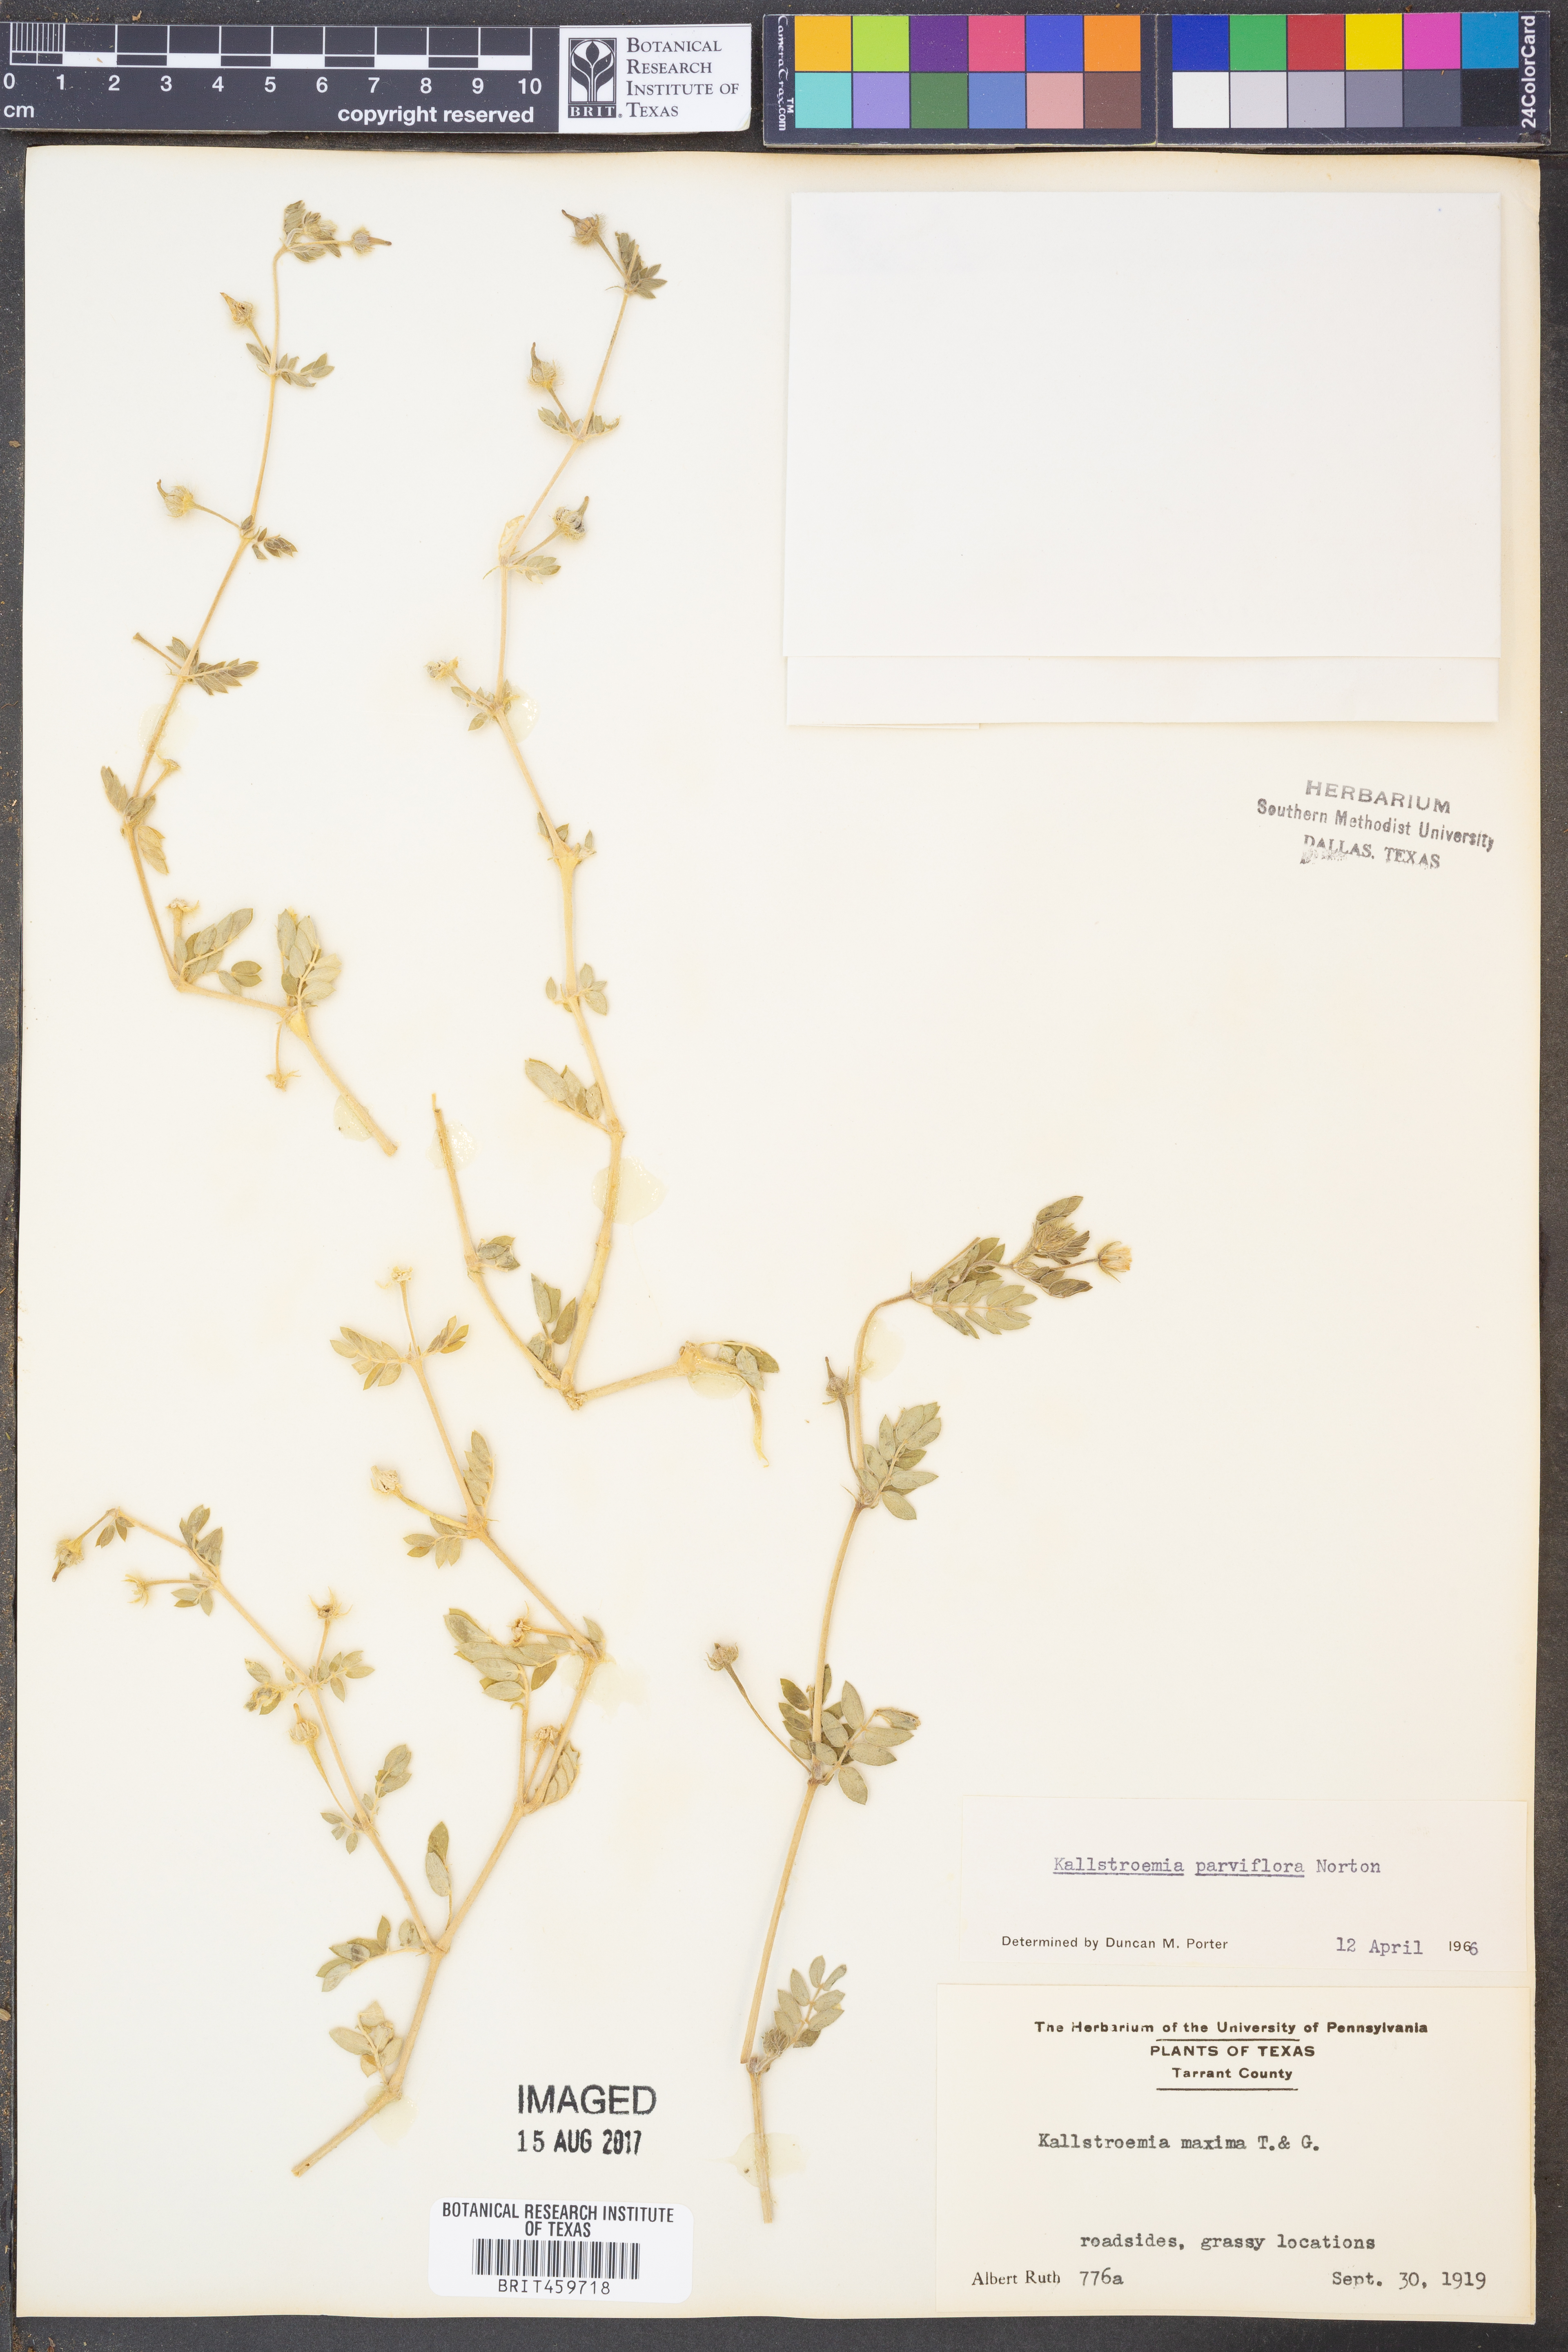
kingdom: Plantae
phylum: Tracheophyta
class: Magnoliopsida
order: Zygophyllales
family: Zygophyllaceae
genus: Kallstroemia
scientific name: Kallstroemia parviflora
